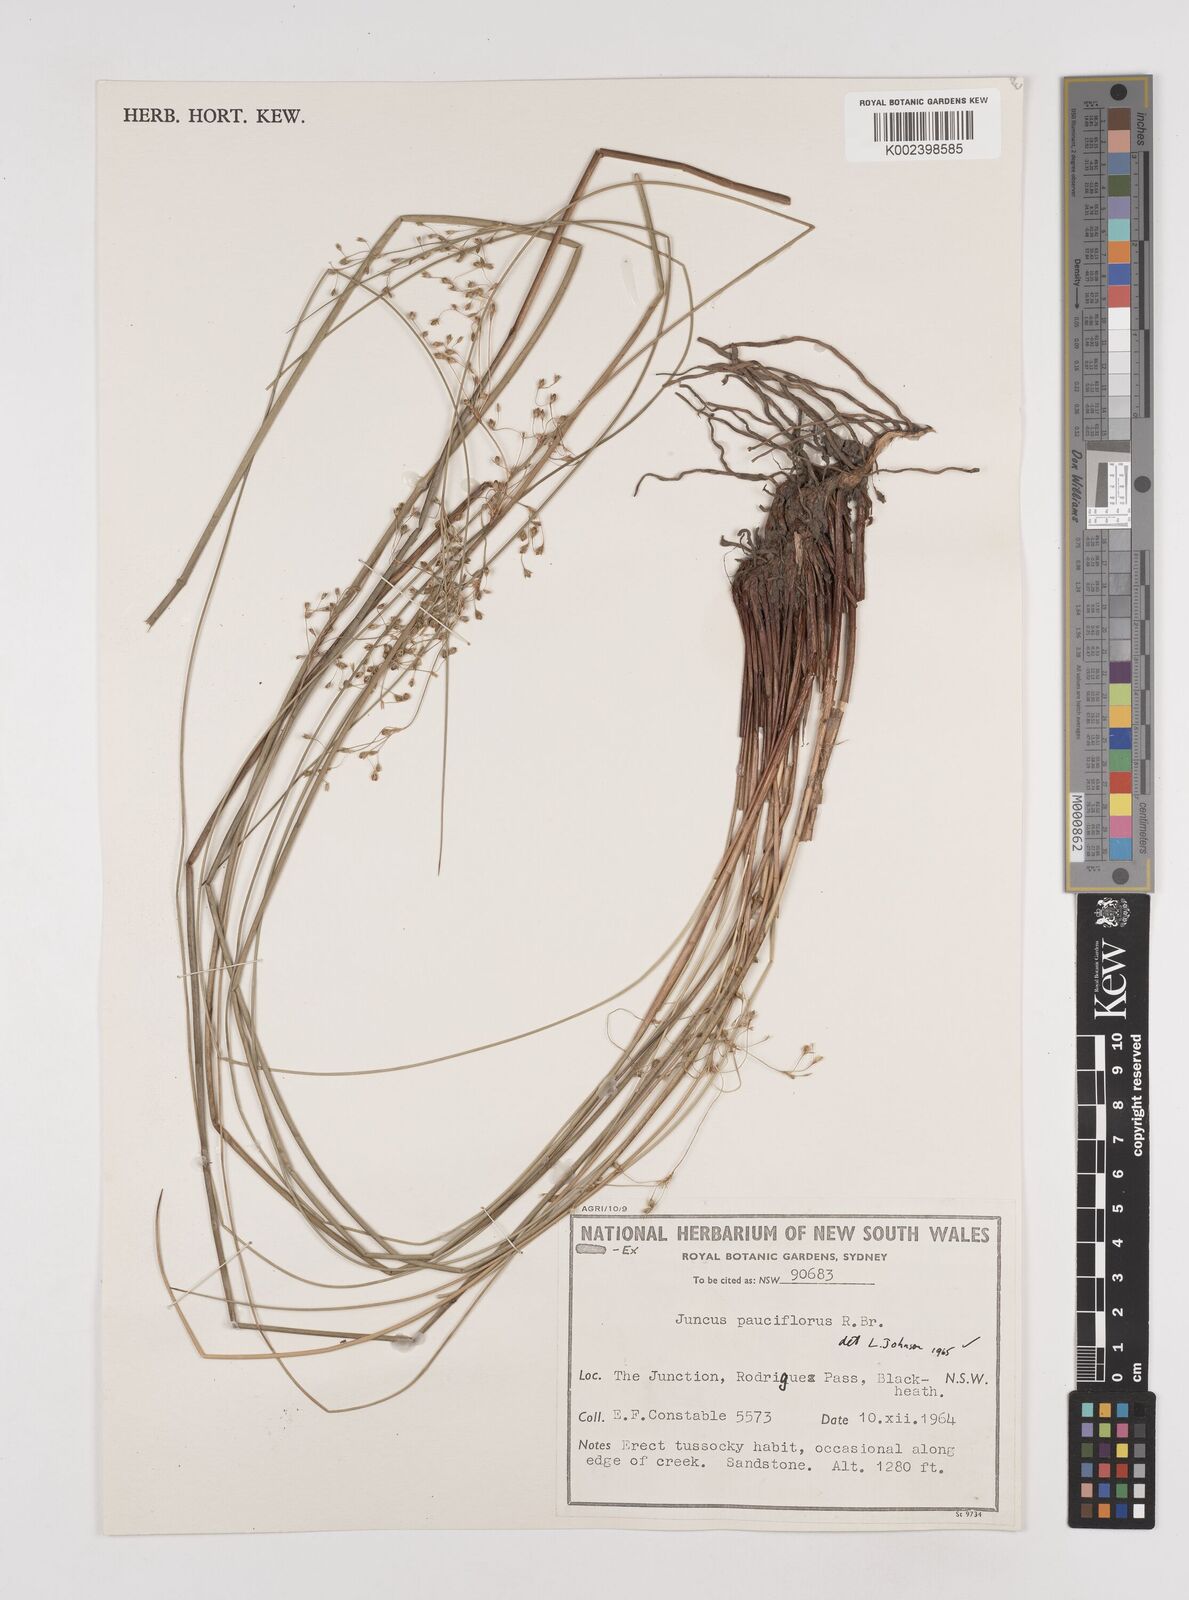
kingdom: Plantae
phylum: Tracheophyta
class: Liliopsida
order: Poales
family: Juncaceae
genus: Juncus
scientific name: Juncus pauciflorus
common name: Loose-flowered rush
